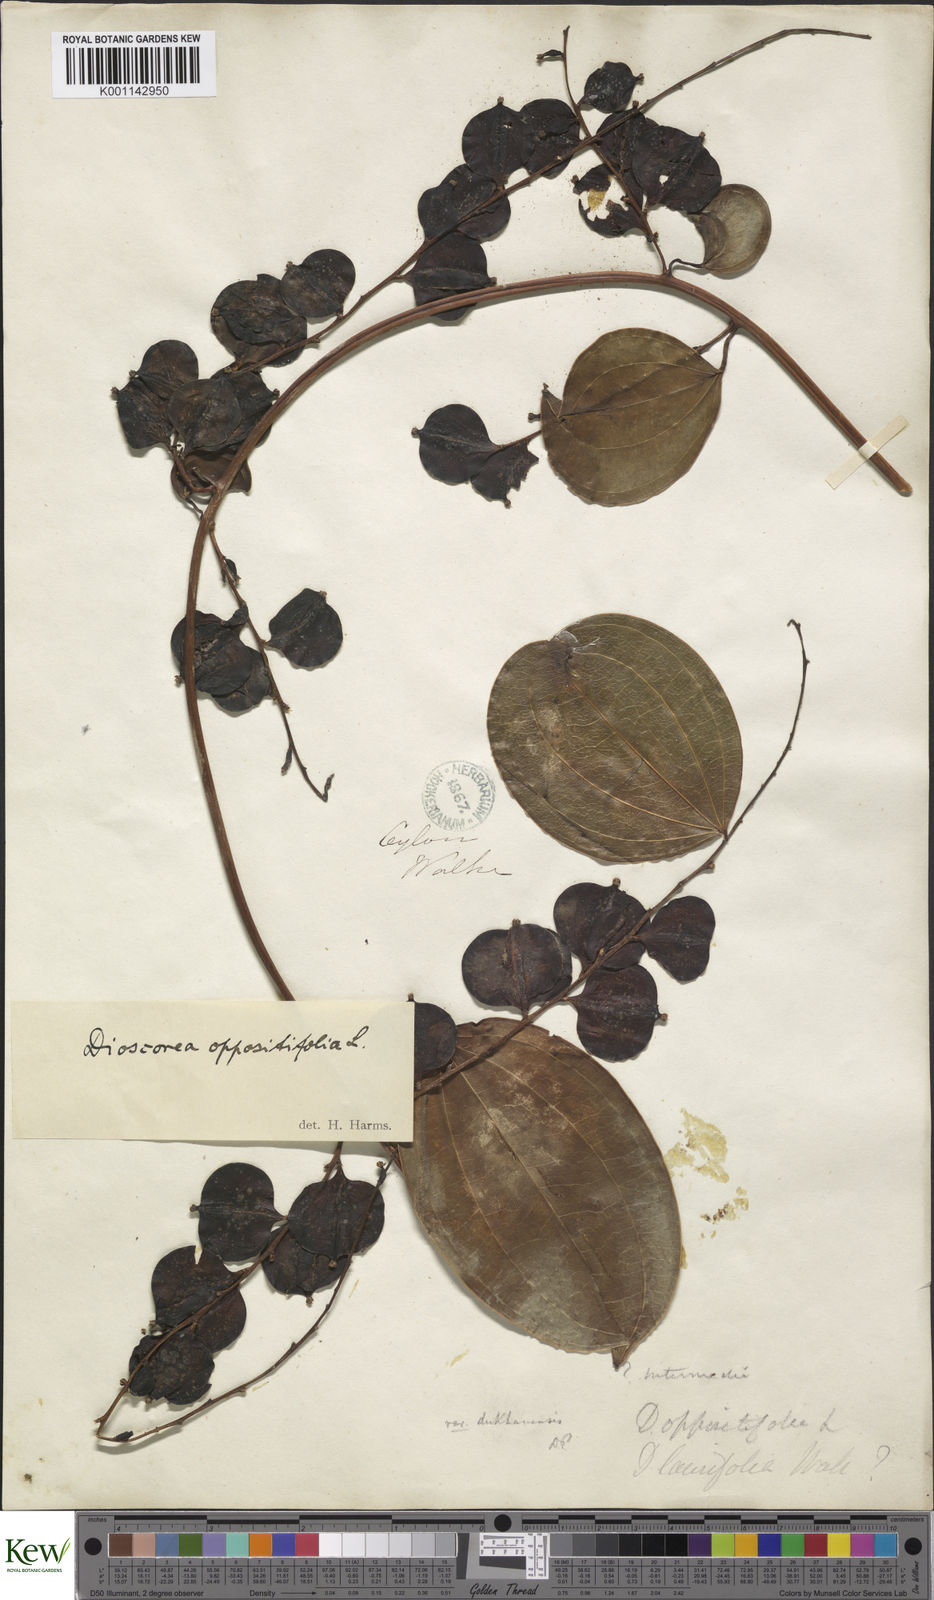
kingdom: Plantae
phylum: Tracheophyta
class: Liliopsida
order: Dioscoreales
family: Dioscoreaceae
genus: Dioscorea
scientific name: Dioscorea oppositifolia
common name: Chinese yam
